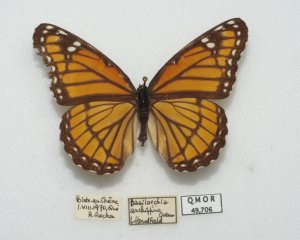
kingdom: Animalia
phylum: Arthropoda
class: Insecta
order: Lepidoptera
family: Nymphalidae
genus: Limenitis
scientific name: Limenitis archippus
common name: Viceroy
